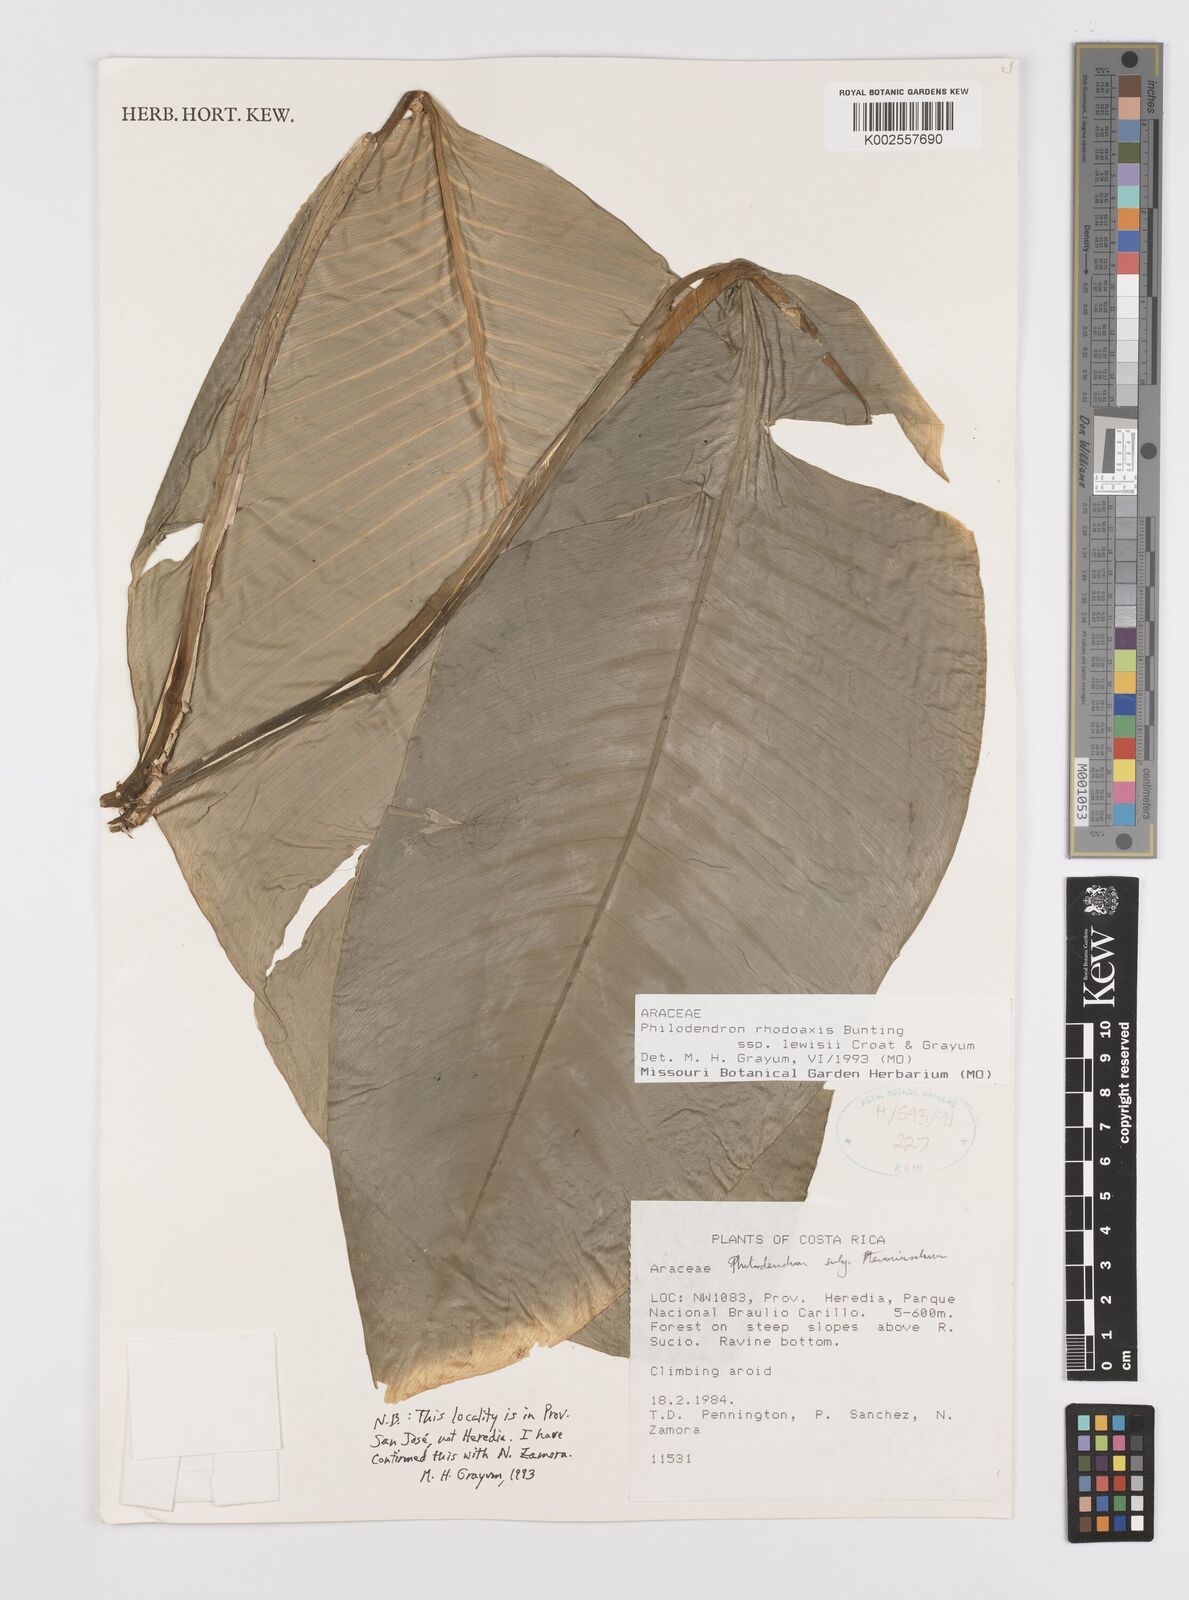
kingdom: Plantae
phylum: Tracheophyta
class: Liliopsida
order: Alismatales
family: Araceae
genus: Philodendron
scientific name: Philodendron rhodoaxis
